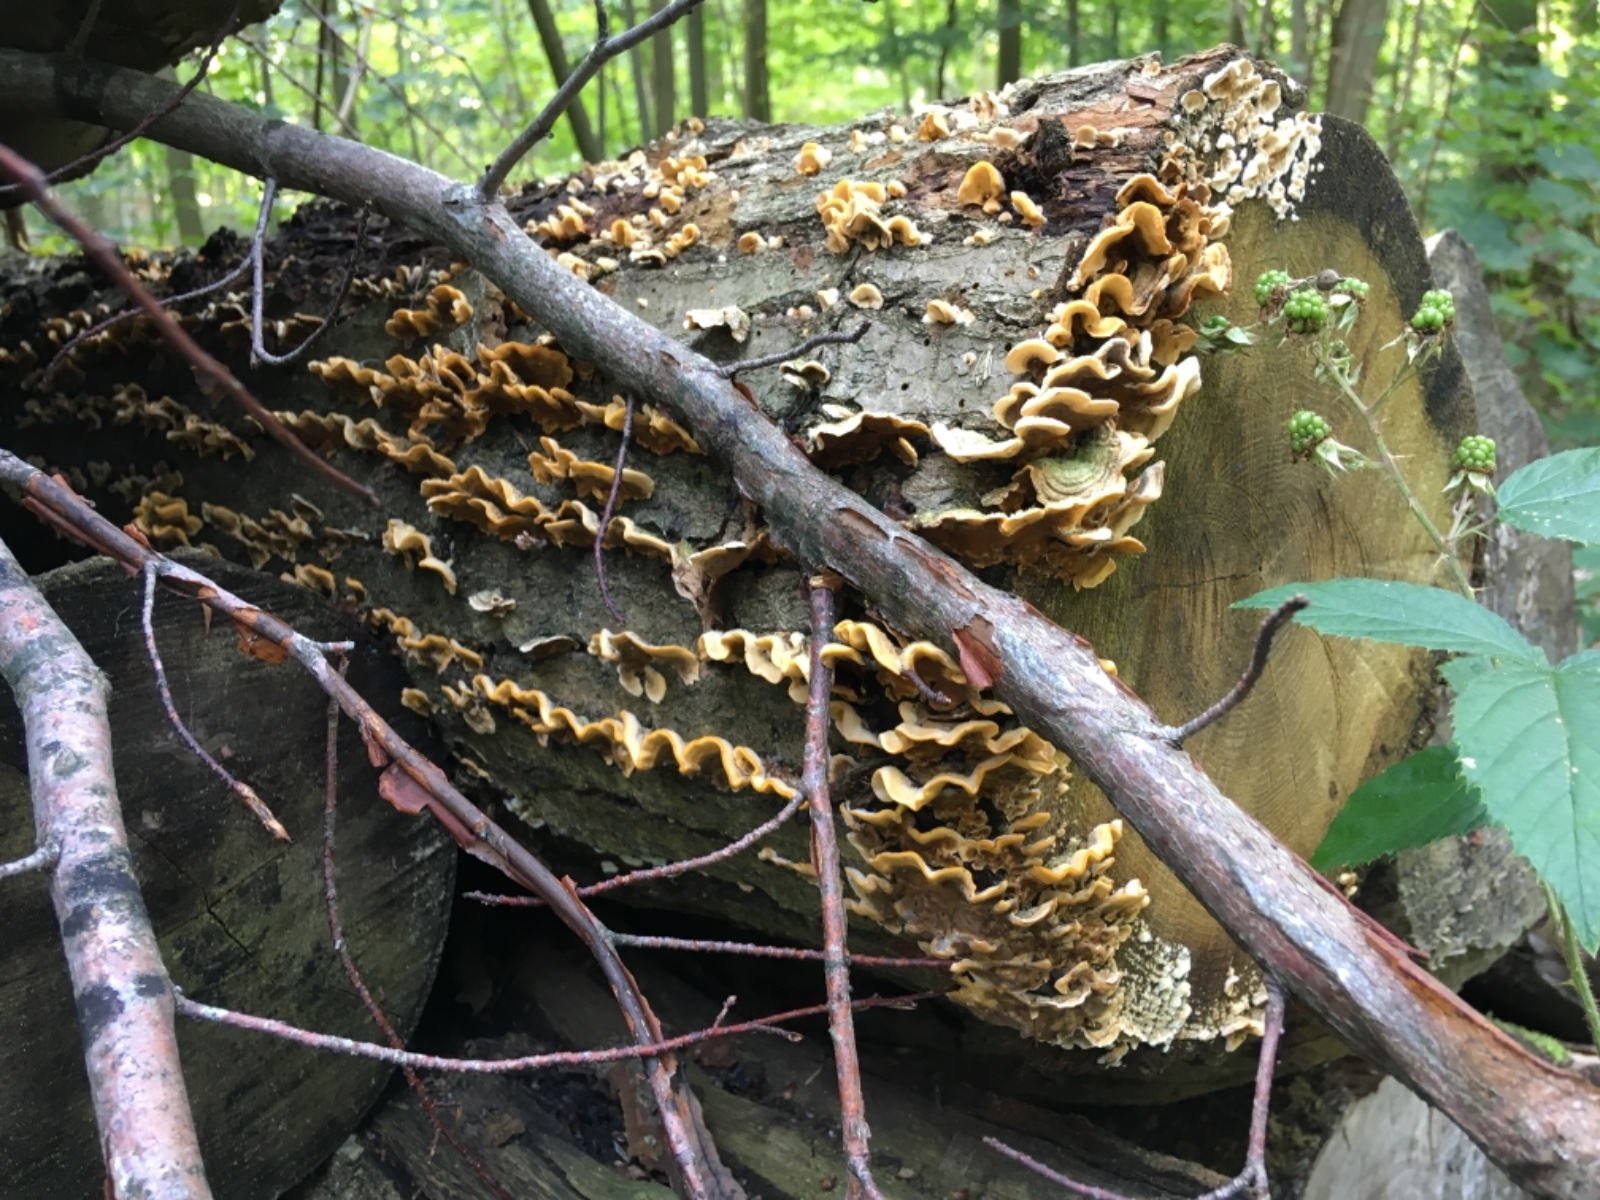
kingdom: Fungi
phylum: Basidiomycota
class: Agaricomycetes
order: Russulales
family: Stereaceae
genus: Stereum
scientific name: Stereum hirsutum
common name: håret lædersvamp
